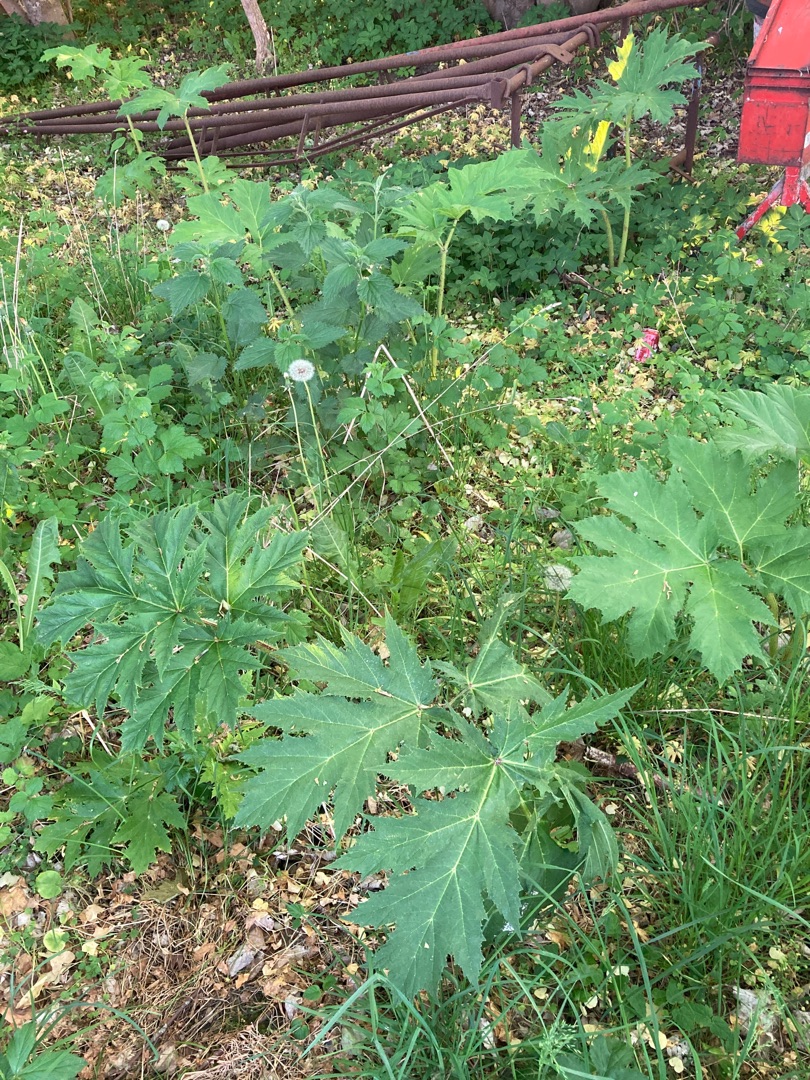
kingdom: Plantae
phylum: Tracheophyta
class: Magnoliopsida
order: Apiales
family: Apiaceae
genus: Heracleum
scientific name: Heracleum mantegazzianum
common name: Kæmpe-bjørneklo
